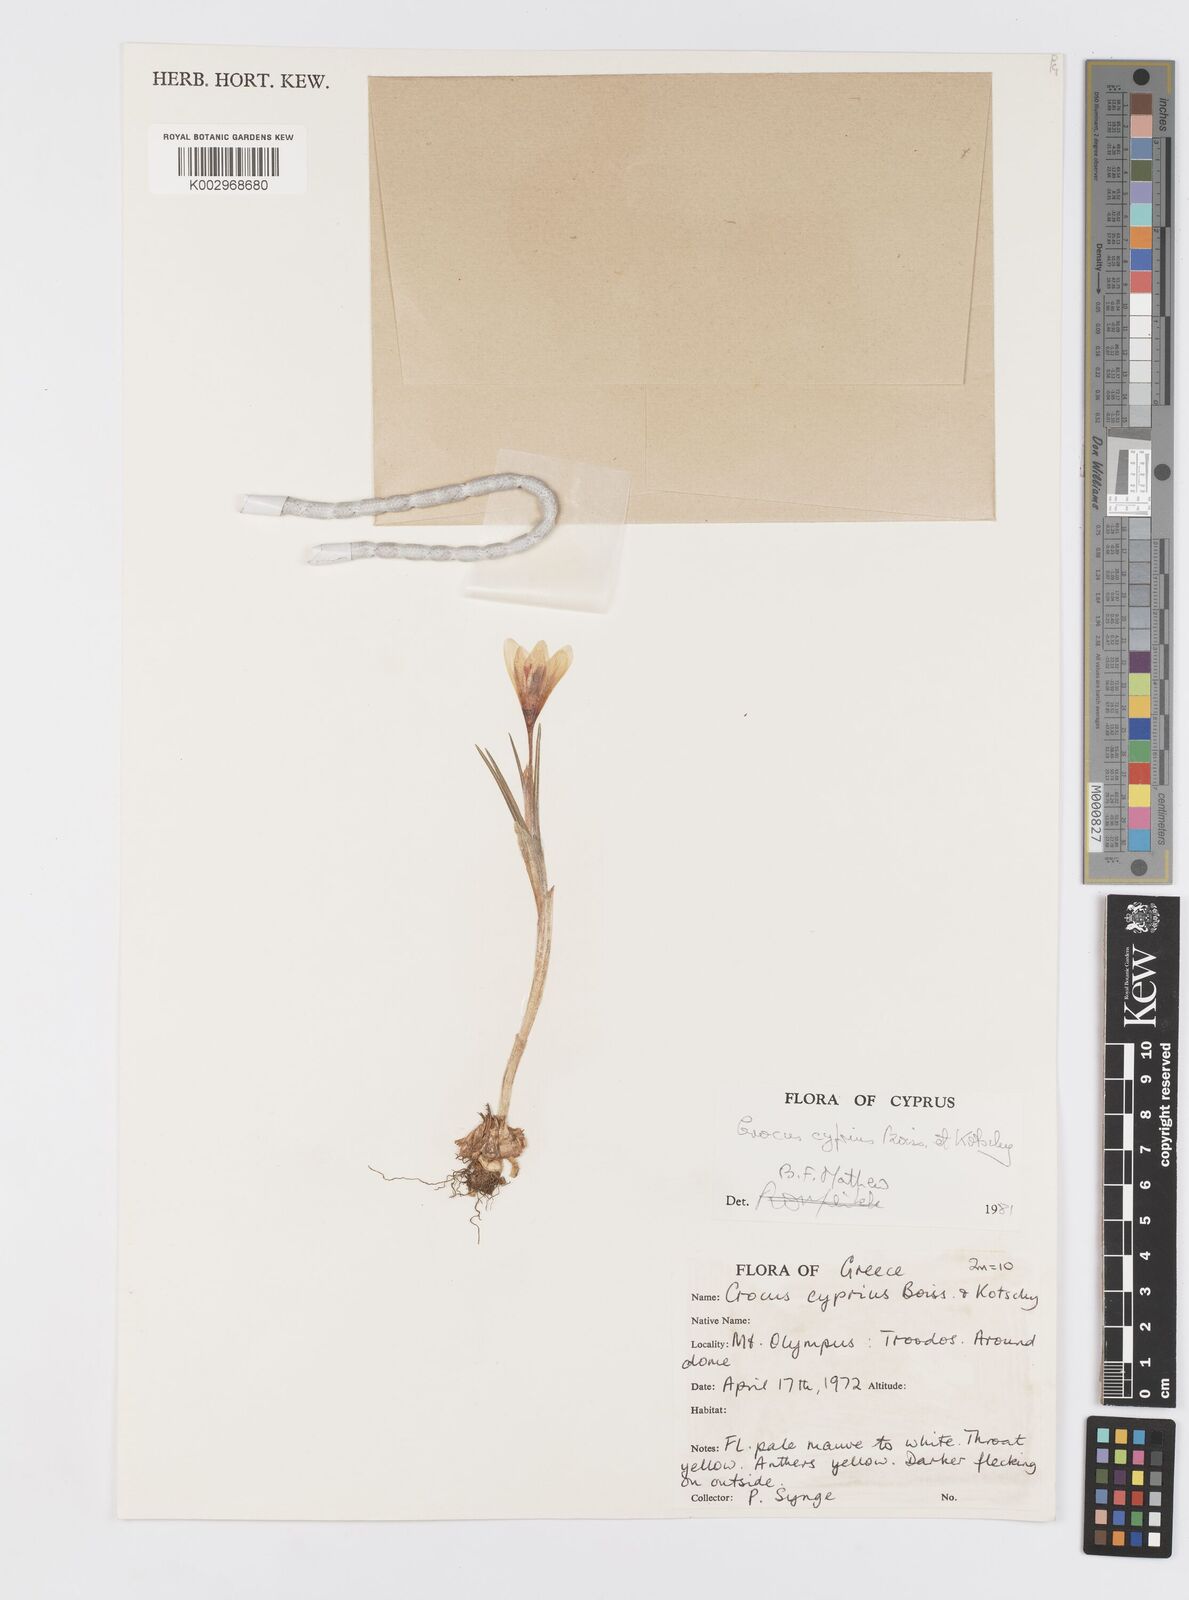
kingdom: Plantae
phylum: Tracheophyta
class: Liliopsida
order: Asparagales
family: Iridaceae
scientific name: Iridaceae
